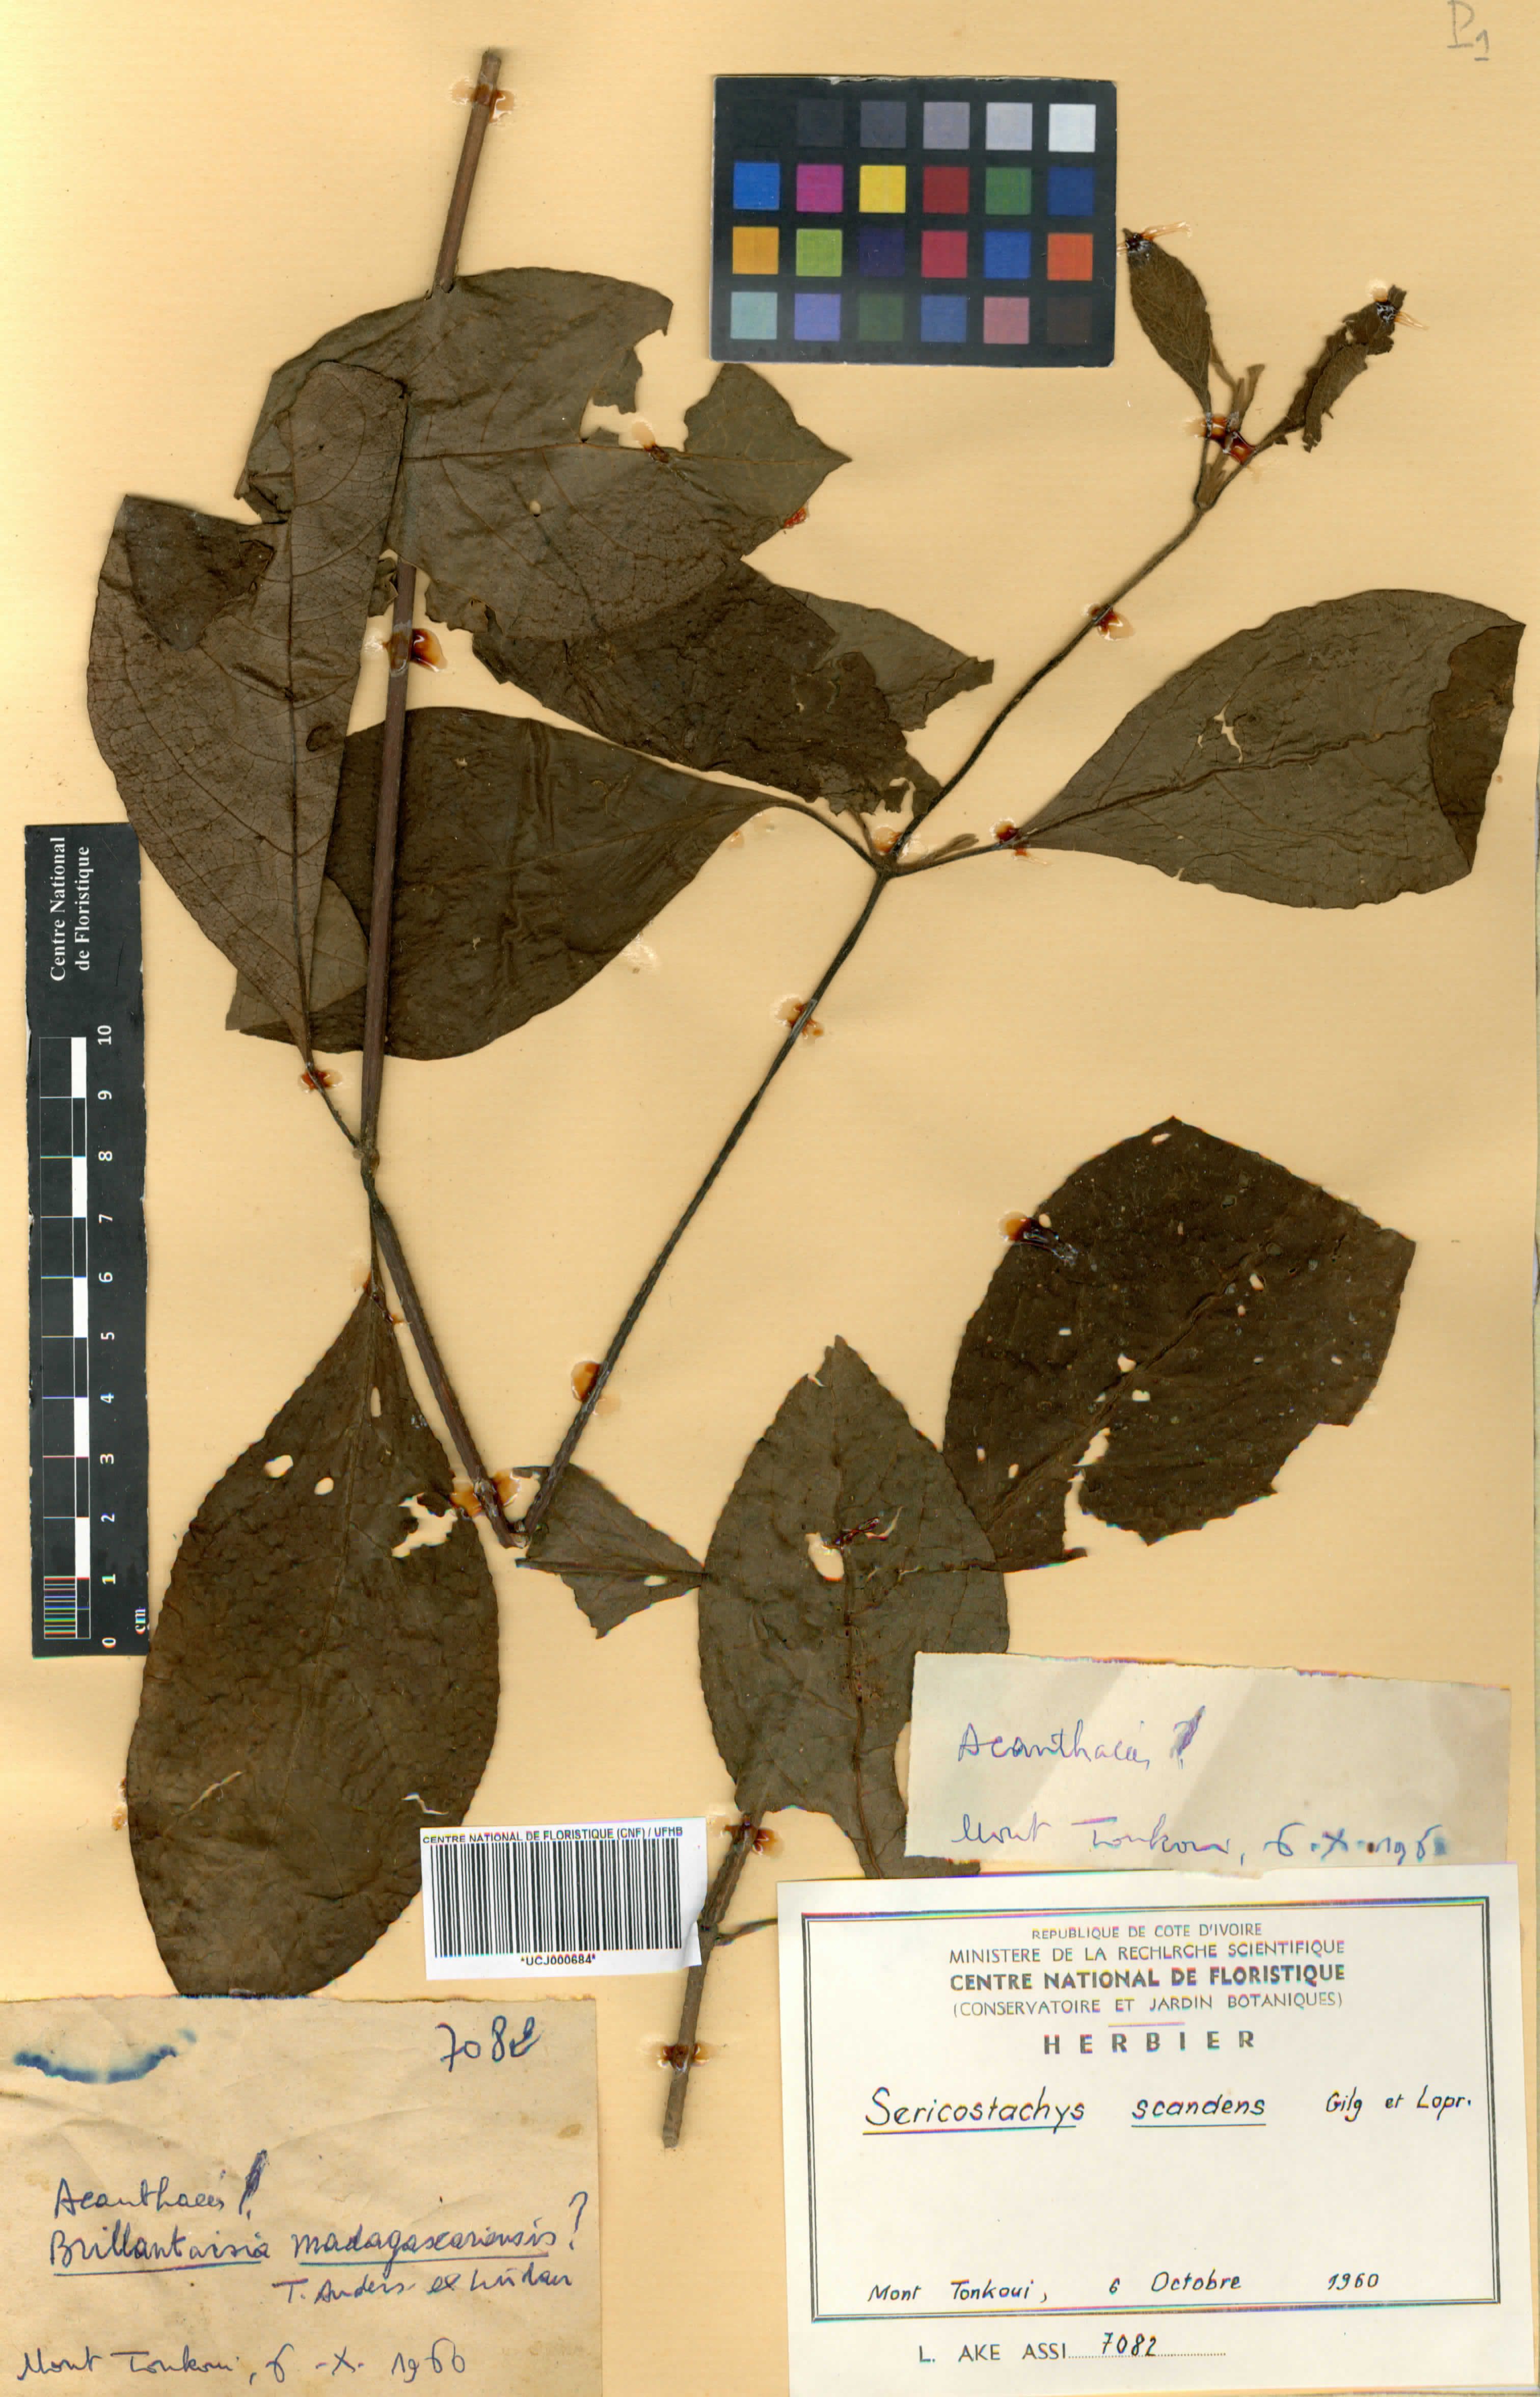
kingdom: Plantae
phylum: Tracheophyta
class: Magnoliopsida
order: Caryophyllales
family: Amaranthaceae
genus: Sericostachys
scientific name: Sericostachys scandens
